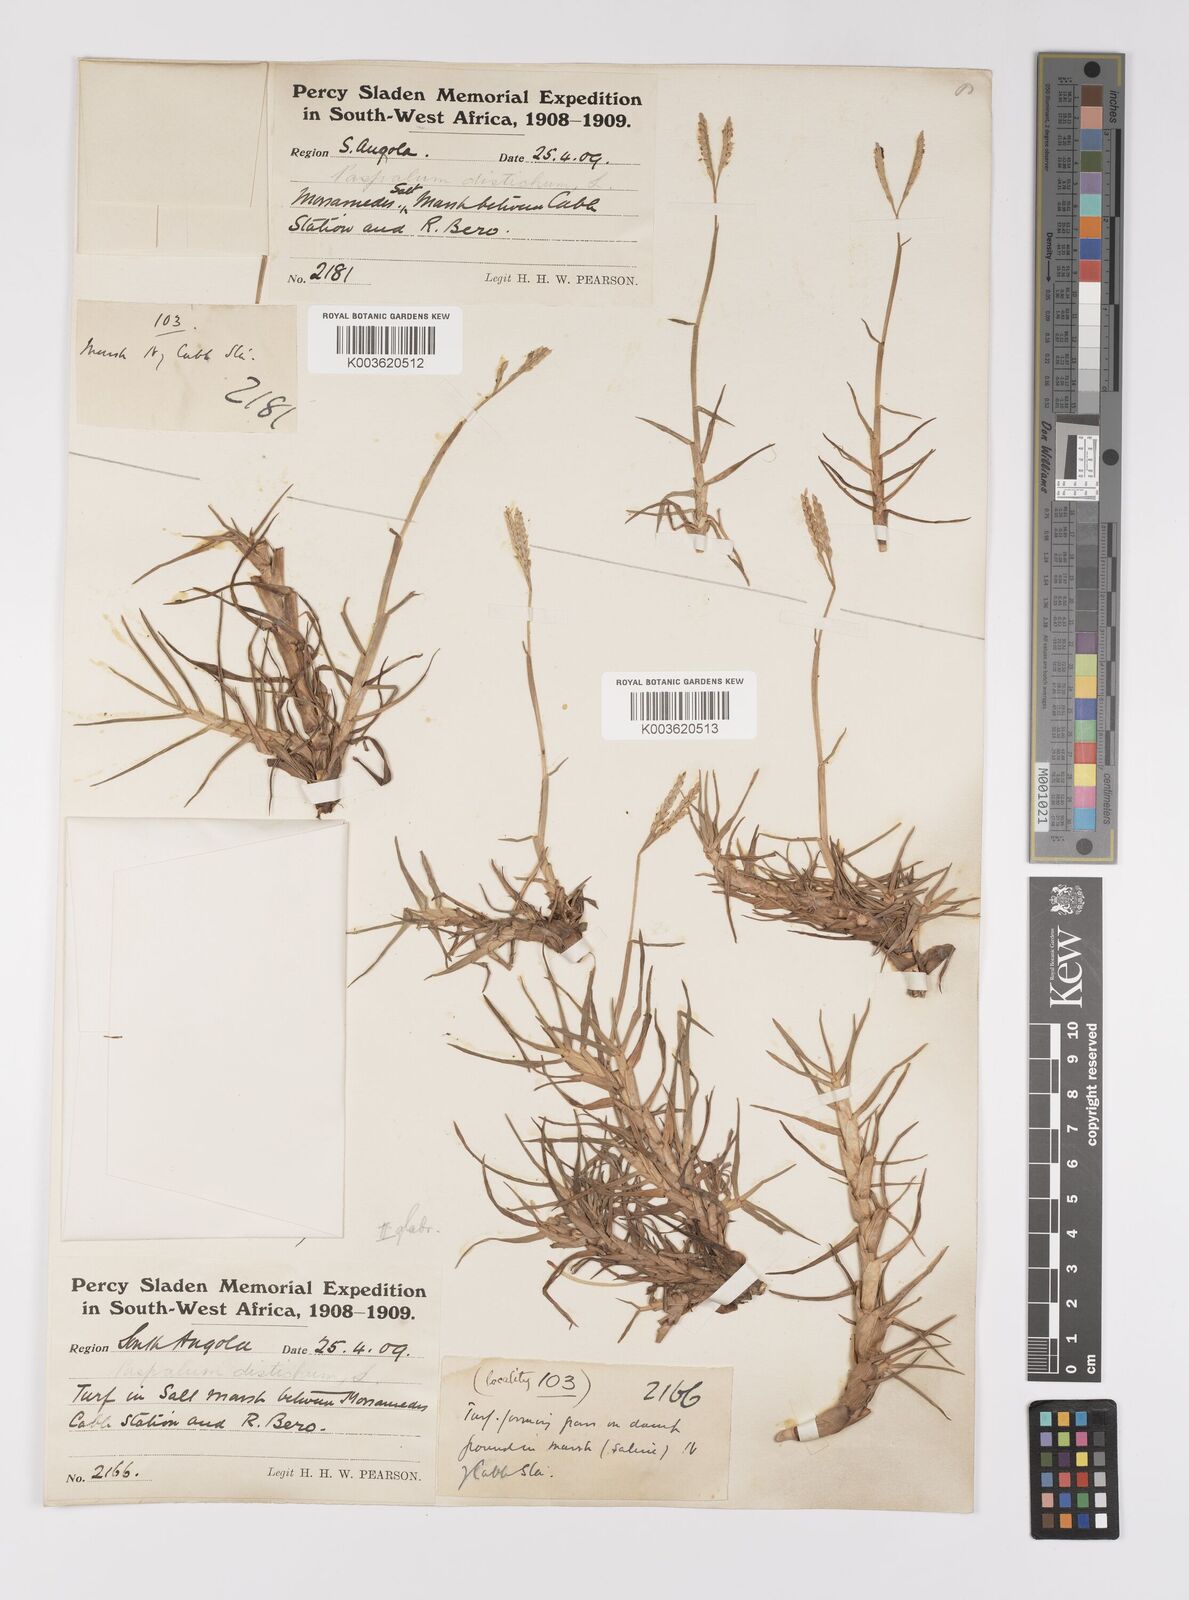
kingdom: Plantae
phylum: Tracheophyta
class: Liliopsida
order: Poales
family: Poaceae
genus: Paspalum
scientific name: Paspalum vaginatum
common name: Seashore paspalum
